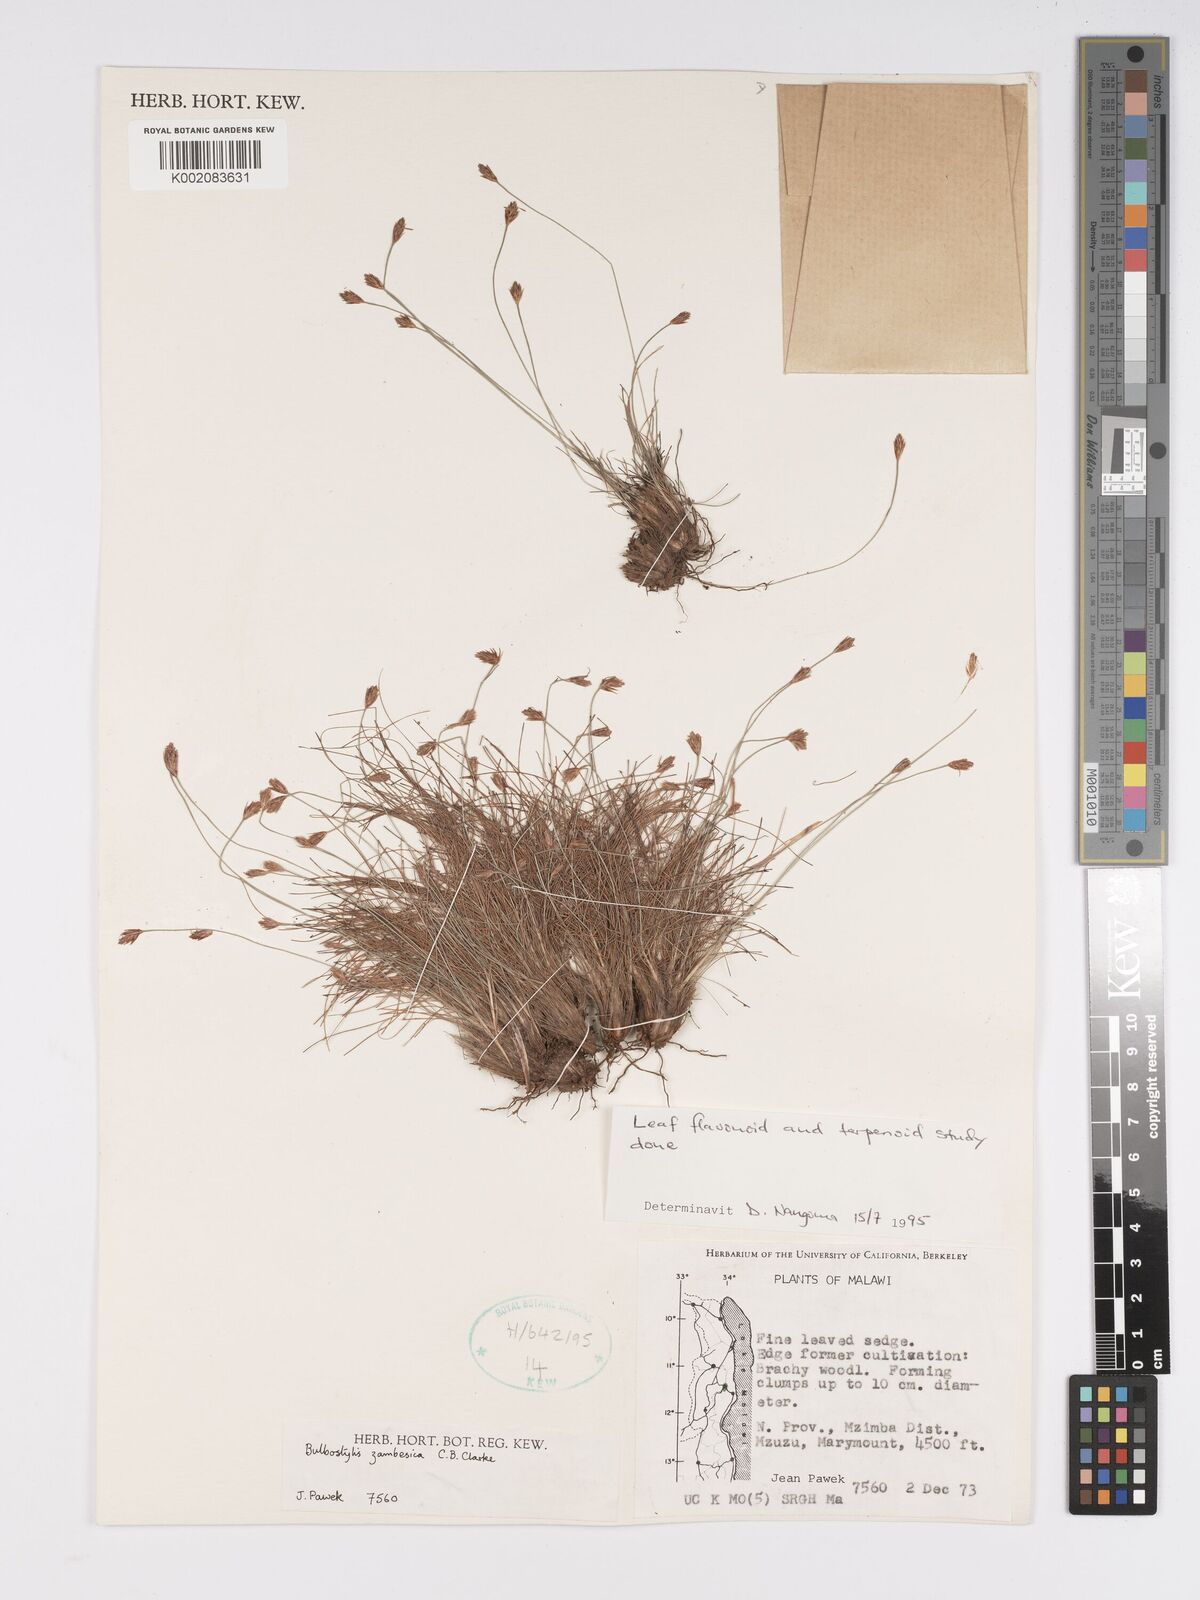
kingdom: Plantae
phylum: Tracheophyta
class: Liliopsida
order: Poales
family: Cyperaceae
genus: Bulbostylis
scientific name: Bulbostylis macra
